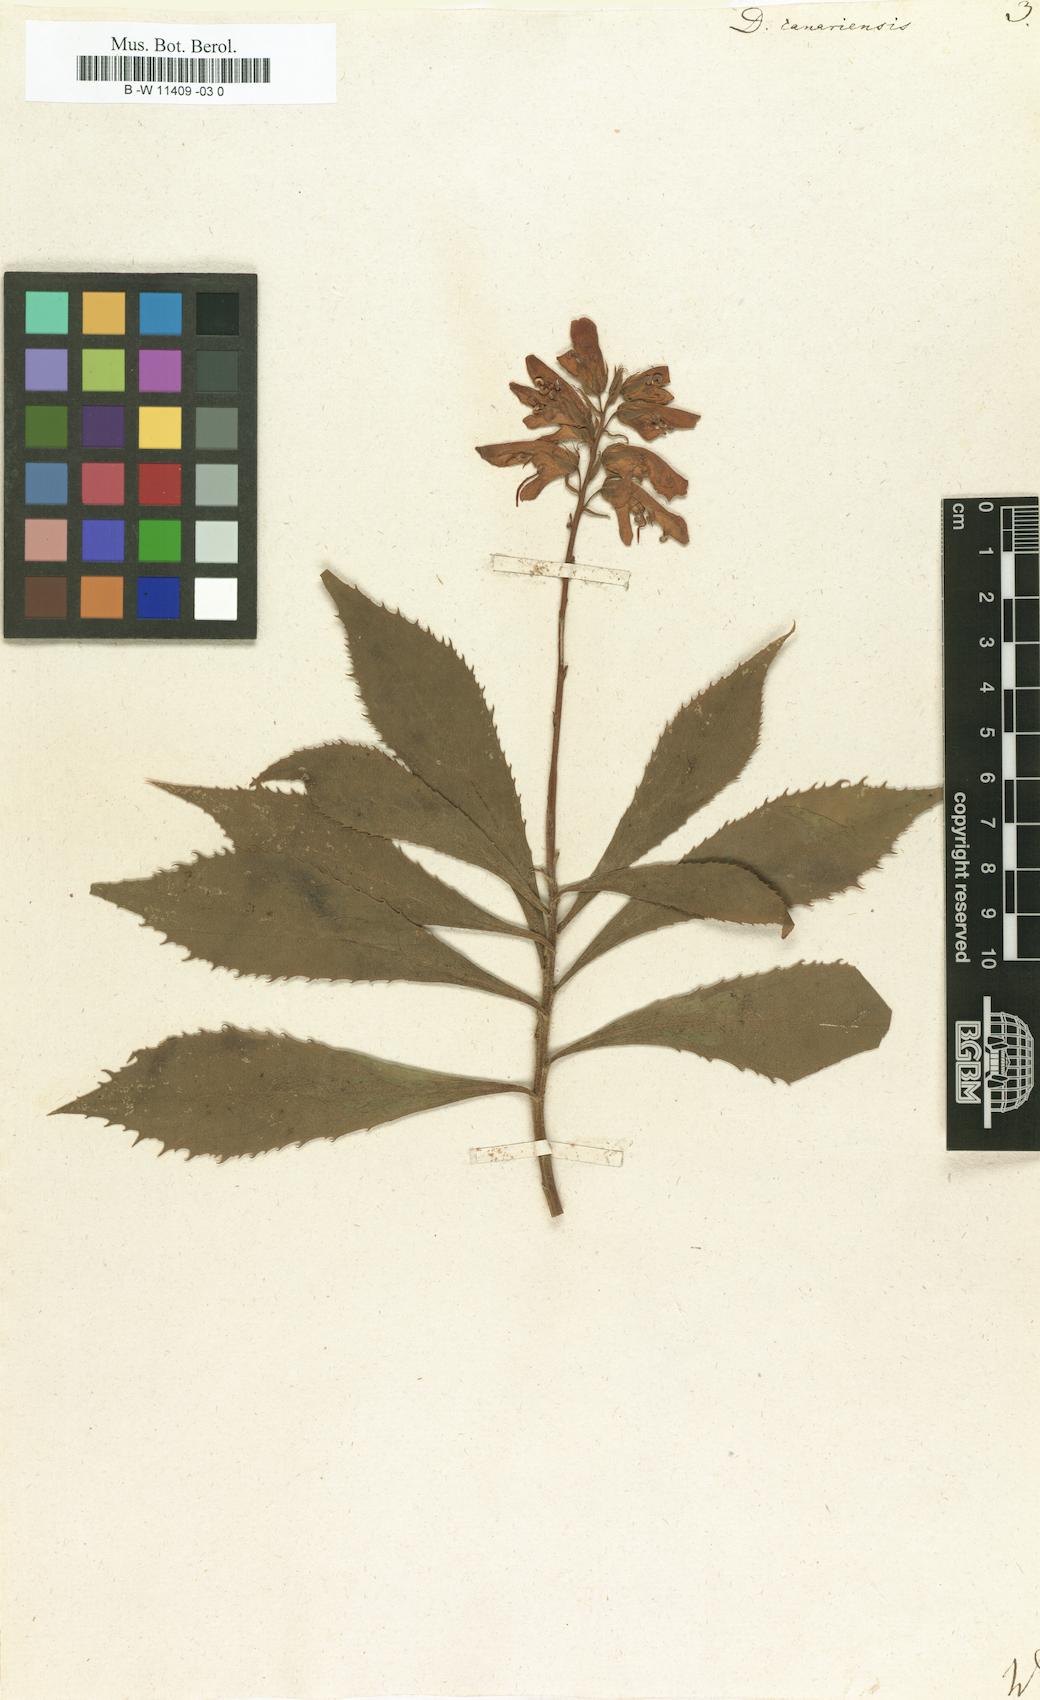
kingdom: Plantae
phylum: Tracheophyta
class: Magnoliopsida
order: Lamiales
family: Plantaginaceae
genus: Digitalis
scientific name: Digitalis canariensis
